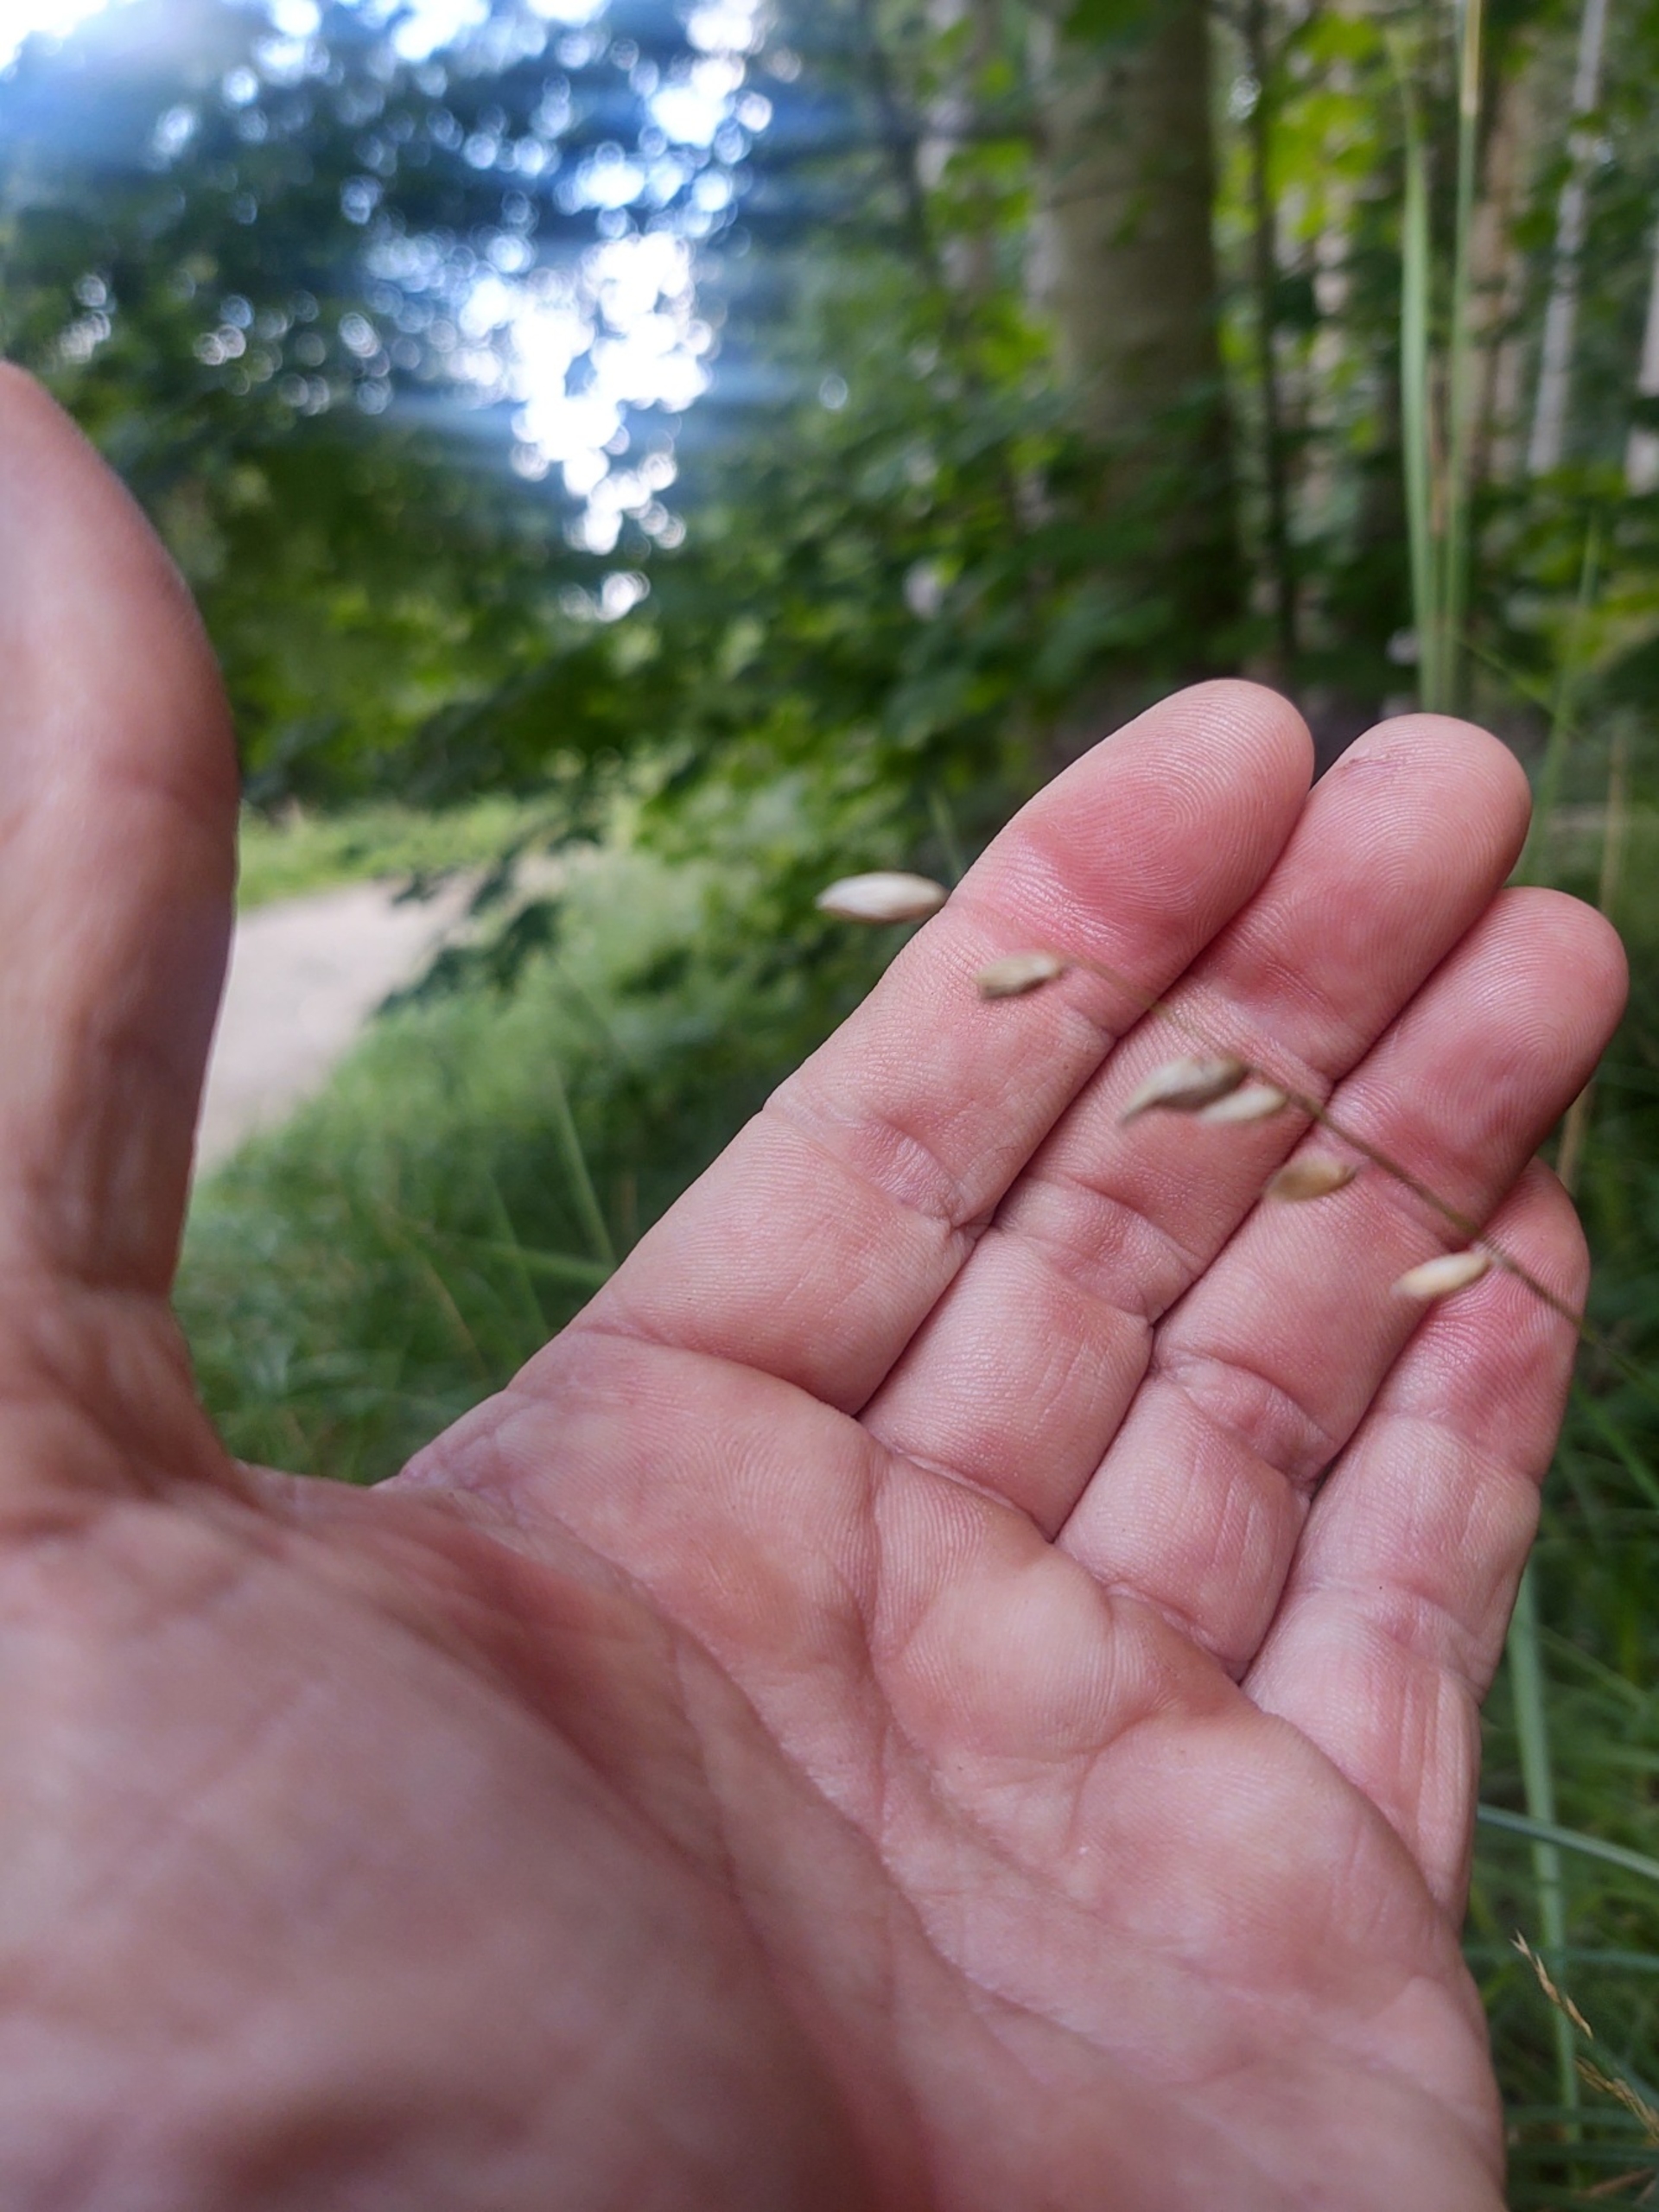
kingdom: Plantae
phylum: Tracheophyta
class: Liliopsida
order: Poales
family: Poaceae
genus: Melica
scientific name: Melica nutans
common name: Nikkende flitteraks
